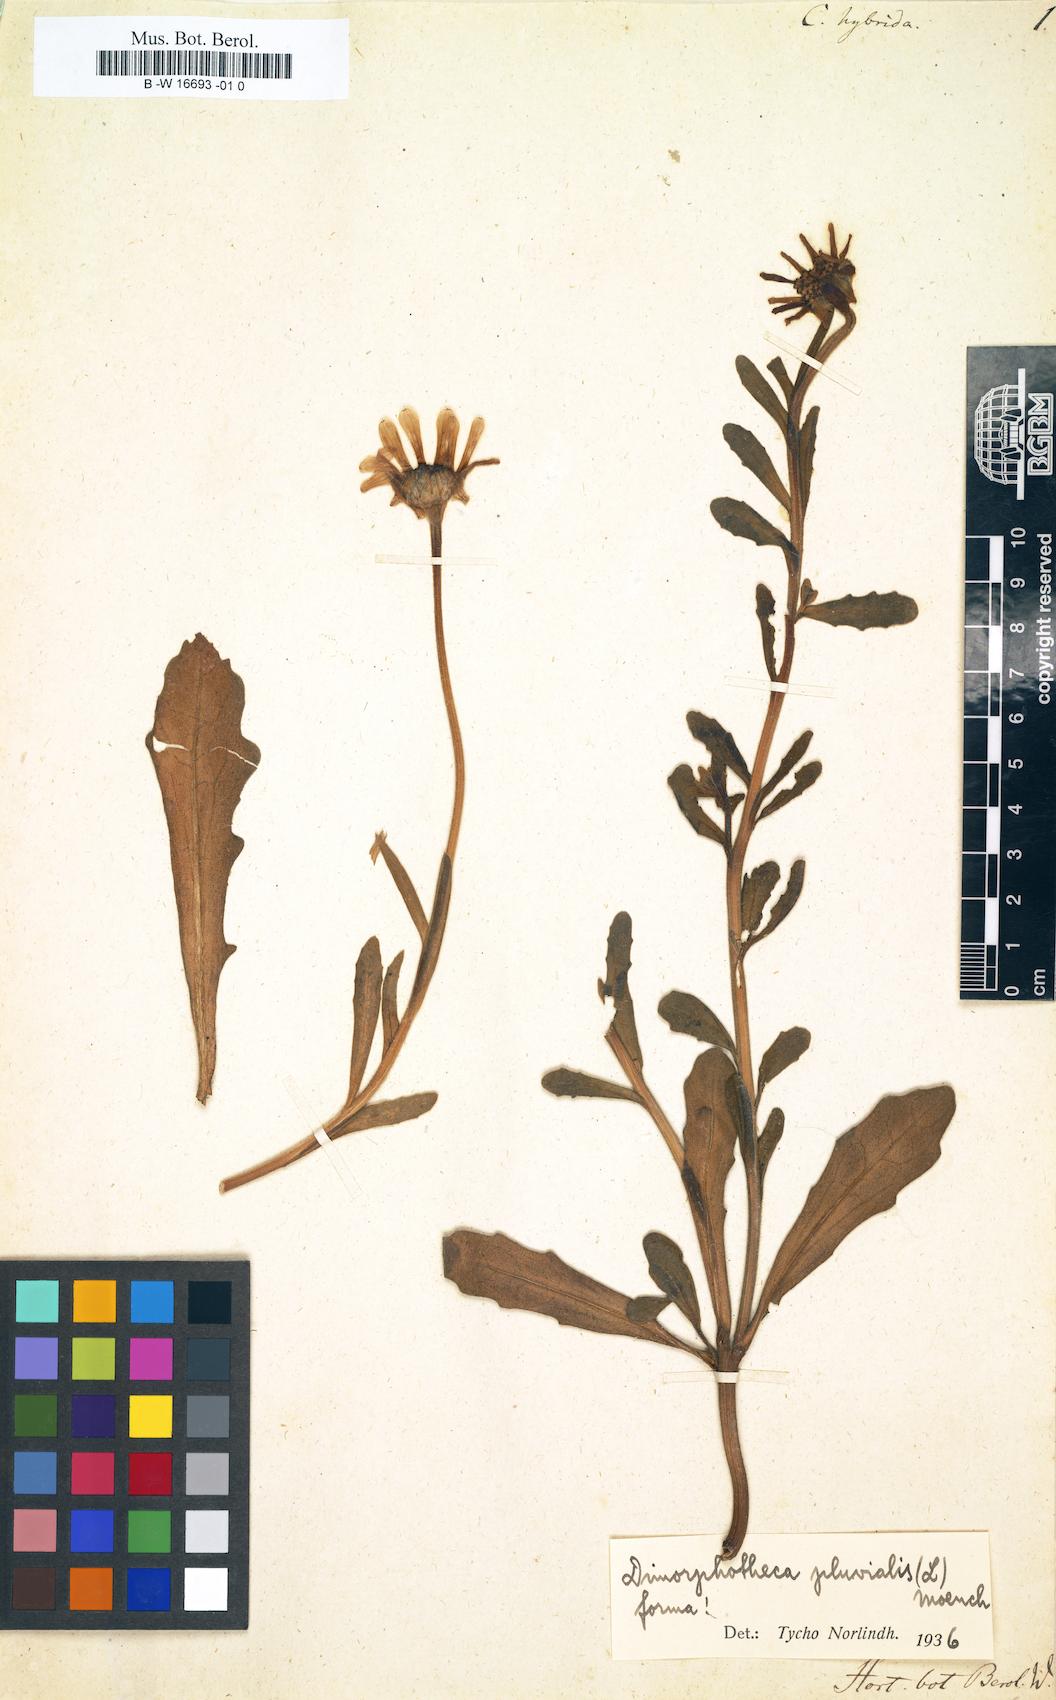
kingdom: Plantae
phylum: Tracheophyta
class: Magnoliopsida
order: Asterales
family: Asteraceae
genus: Dimorphotheca
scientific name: Dimorphotheca pluvialis
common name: Weather prophet
